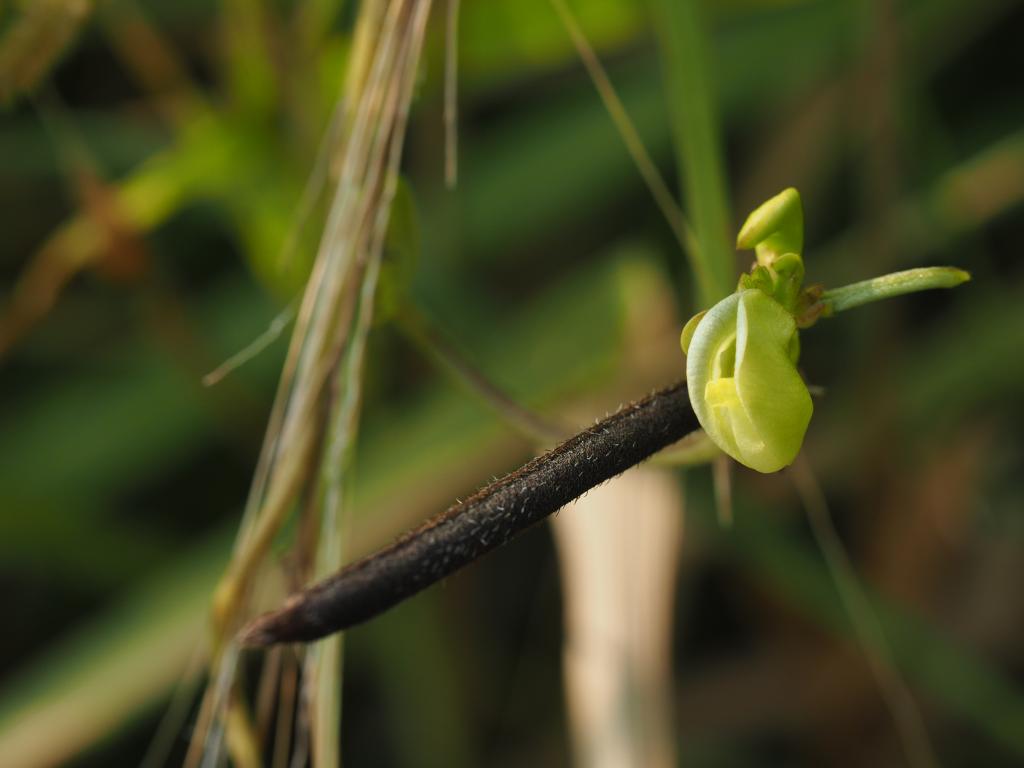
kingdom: Plantae
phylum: Tracheophyta
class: Magnoliopsida
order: Fabales
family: Fabaceae
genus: Vigna
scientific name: Vigna radiata
